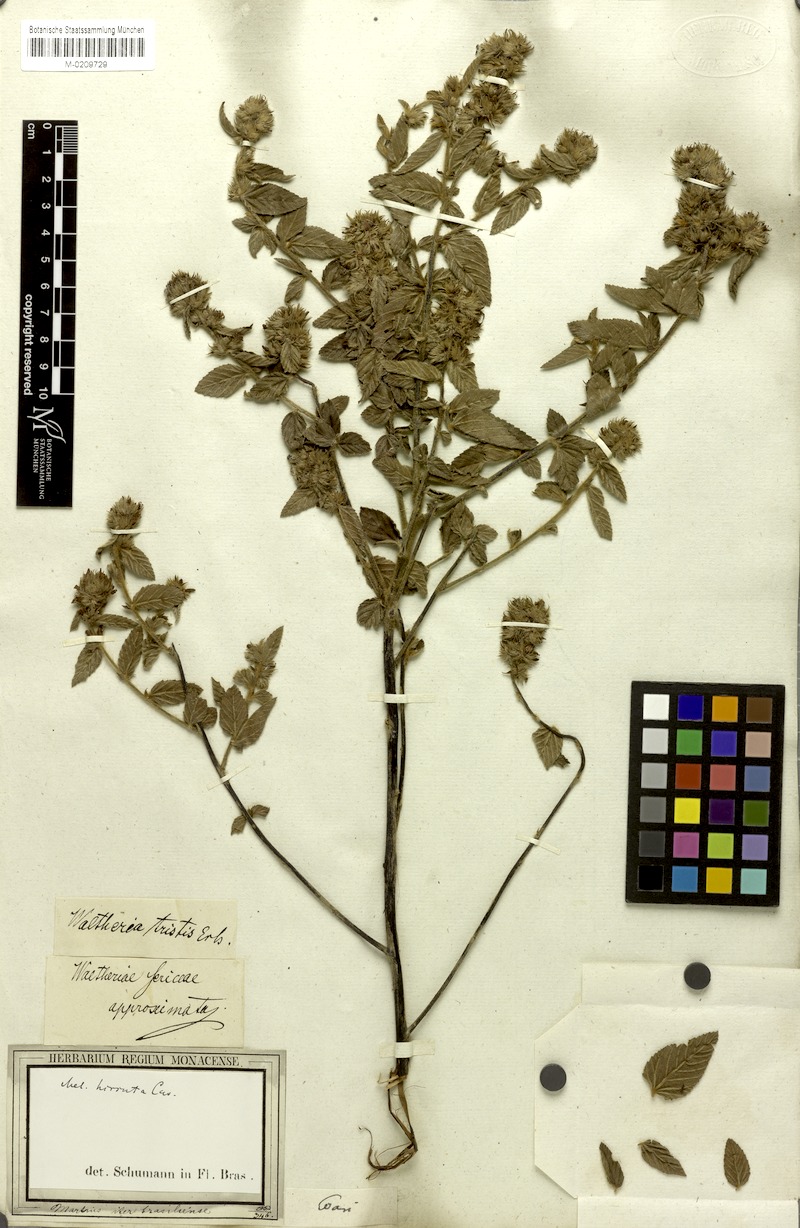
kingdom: Plantae
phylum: Tracheophyta
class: Magnoliopsida
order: Malvales
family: Malvaceae
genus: Melochia
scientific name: Melochia spicata
